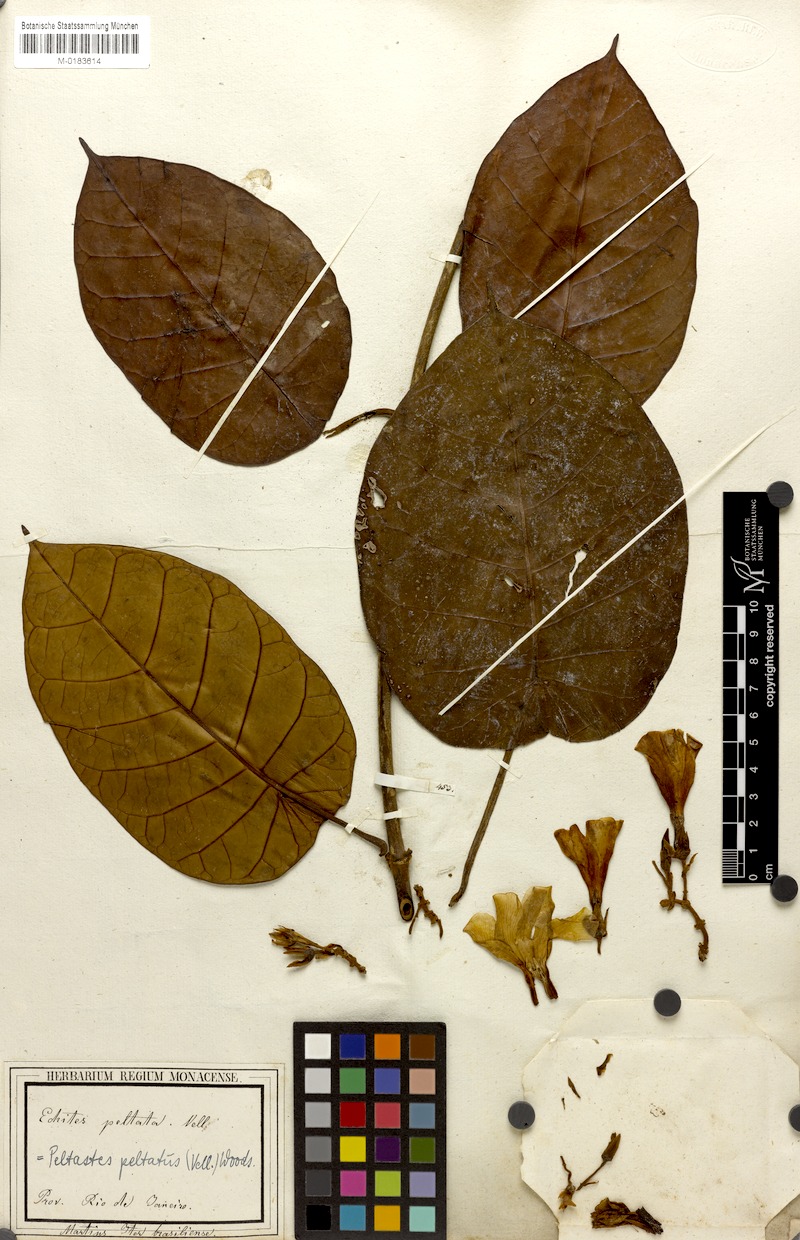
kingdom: Plantae
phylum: Tracheophyta
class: Magnoliopsida
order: Gentianales
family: Apocynaceae
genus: Macropharynx
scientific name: Macropharynx peltata
